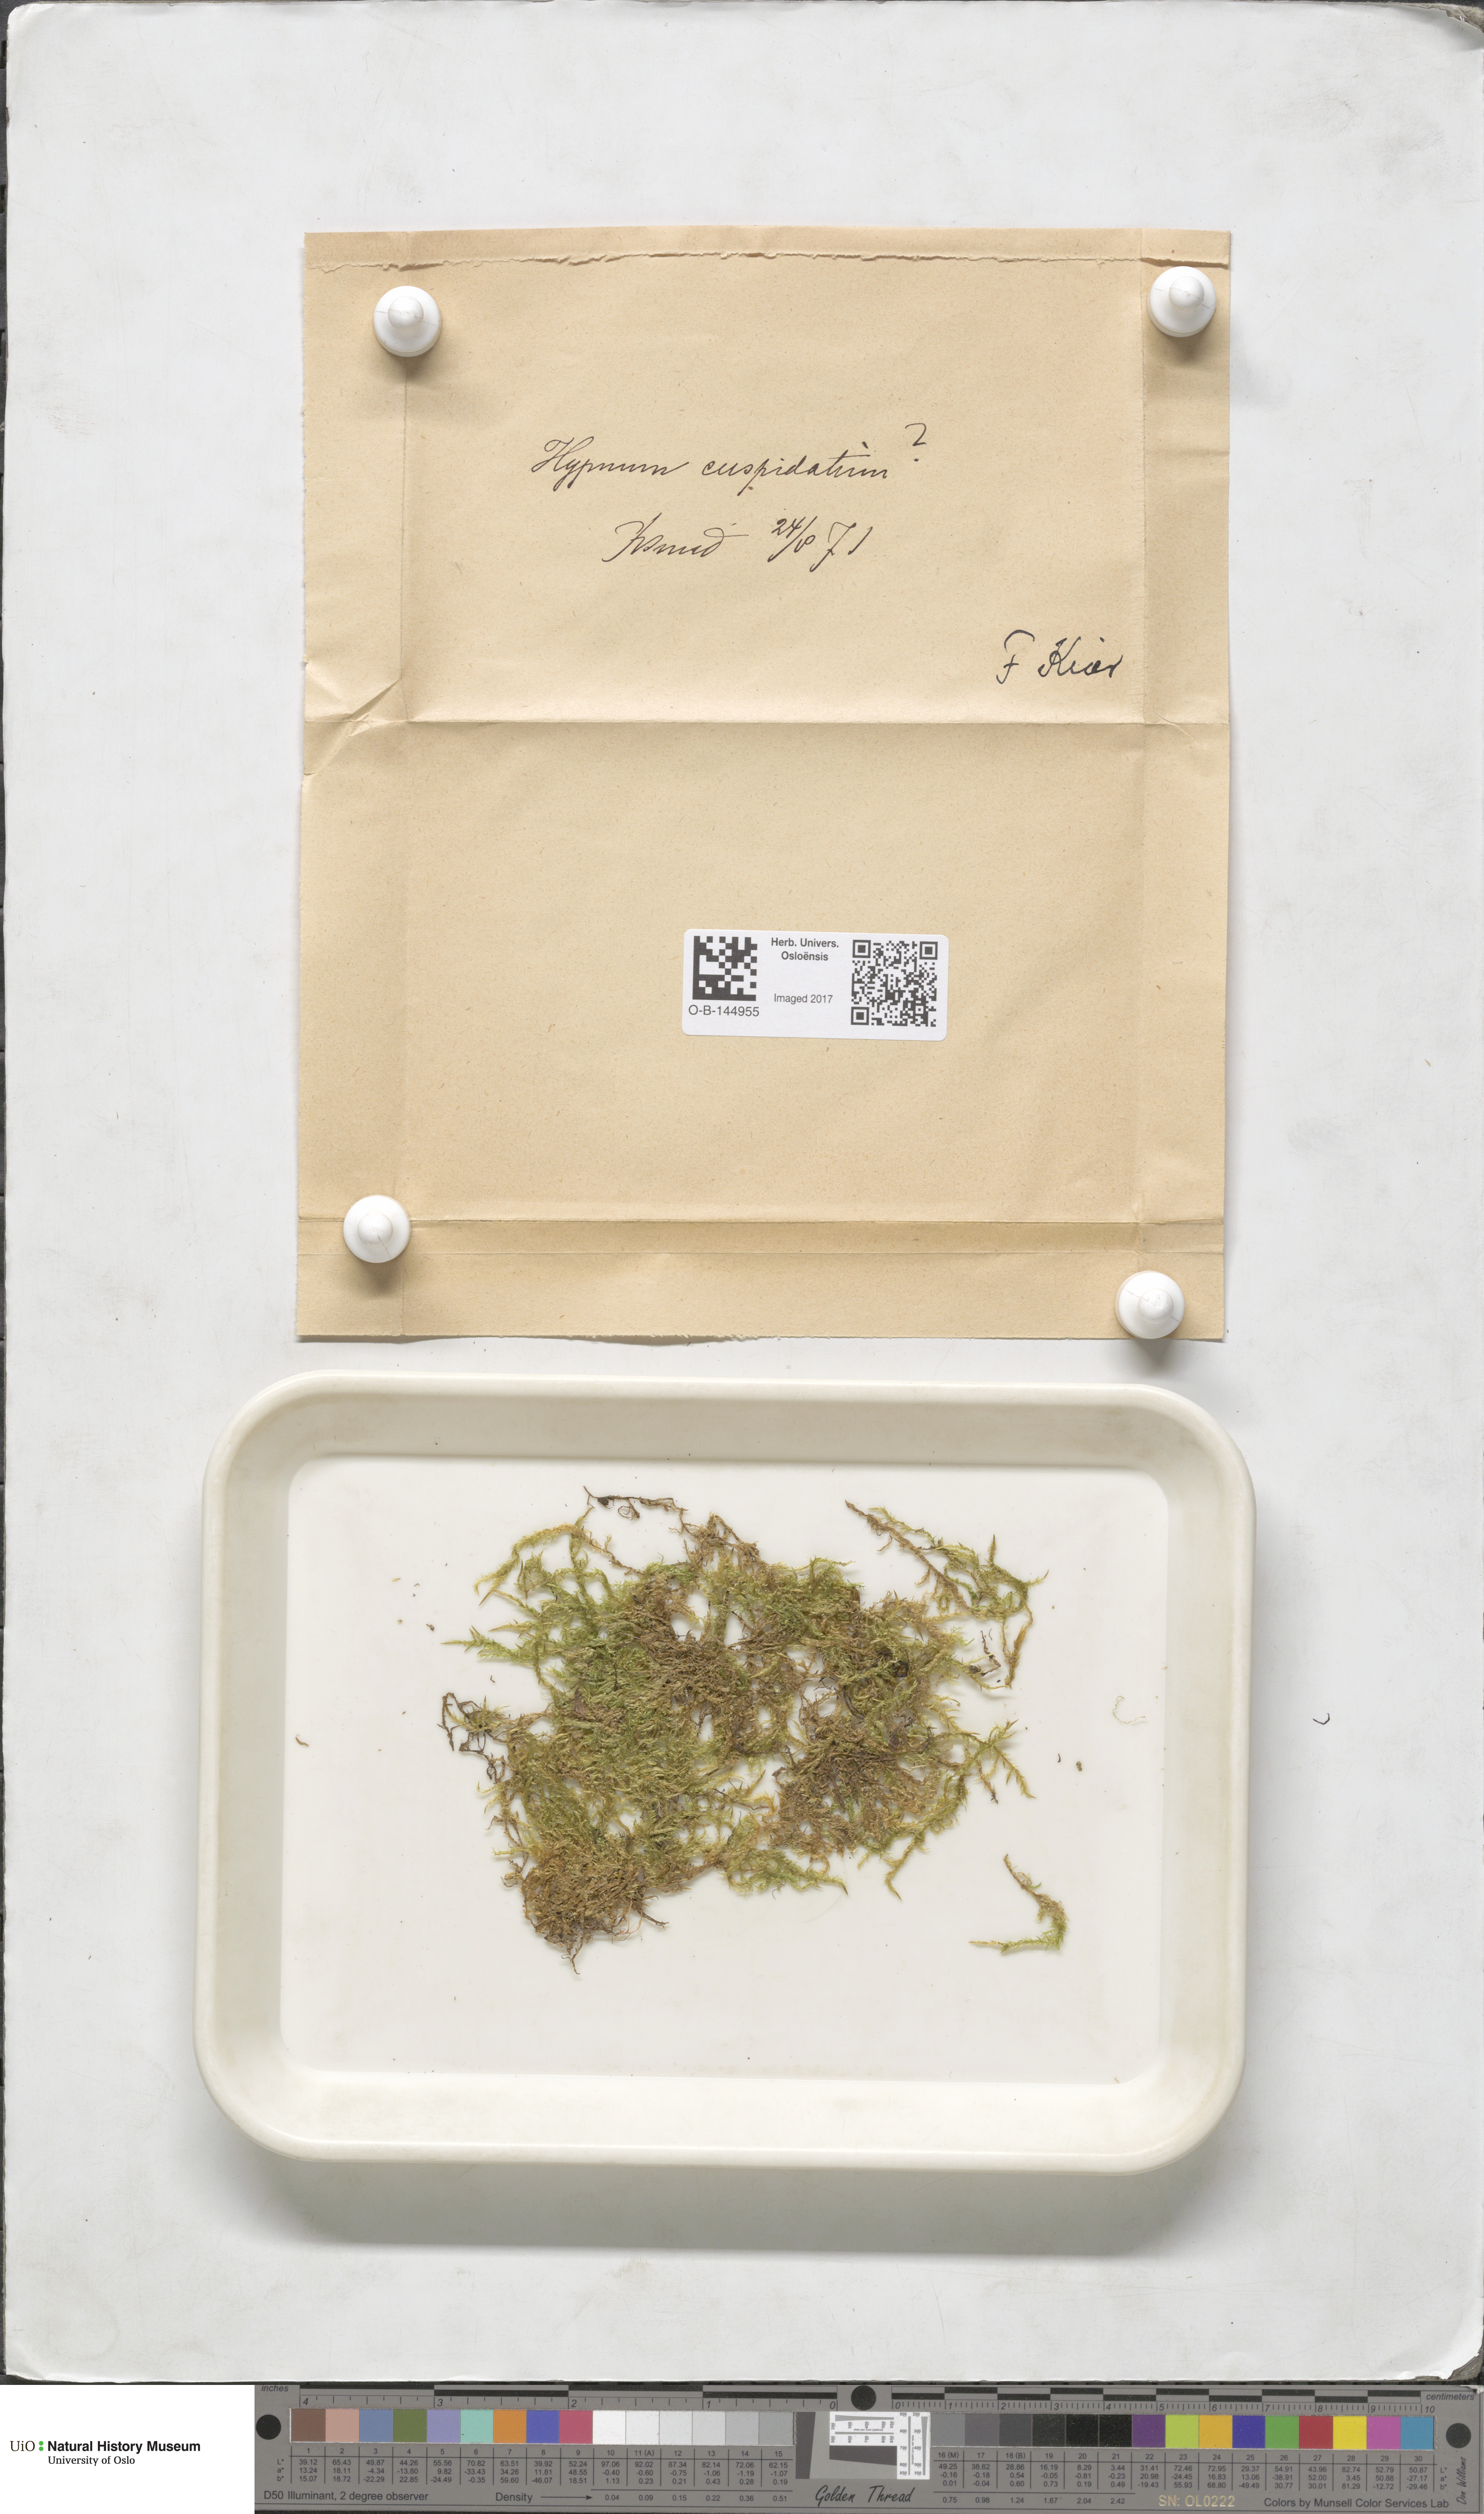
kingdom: Plantae
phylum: Bryophyta
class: Bryopsida
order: Hypnales
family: Pylaisiaceae
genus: Calliergonella
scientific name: Calliergonella cuspidata
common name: Common large wetland moss
